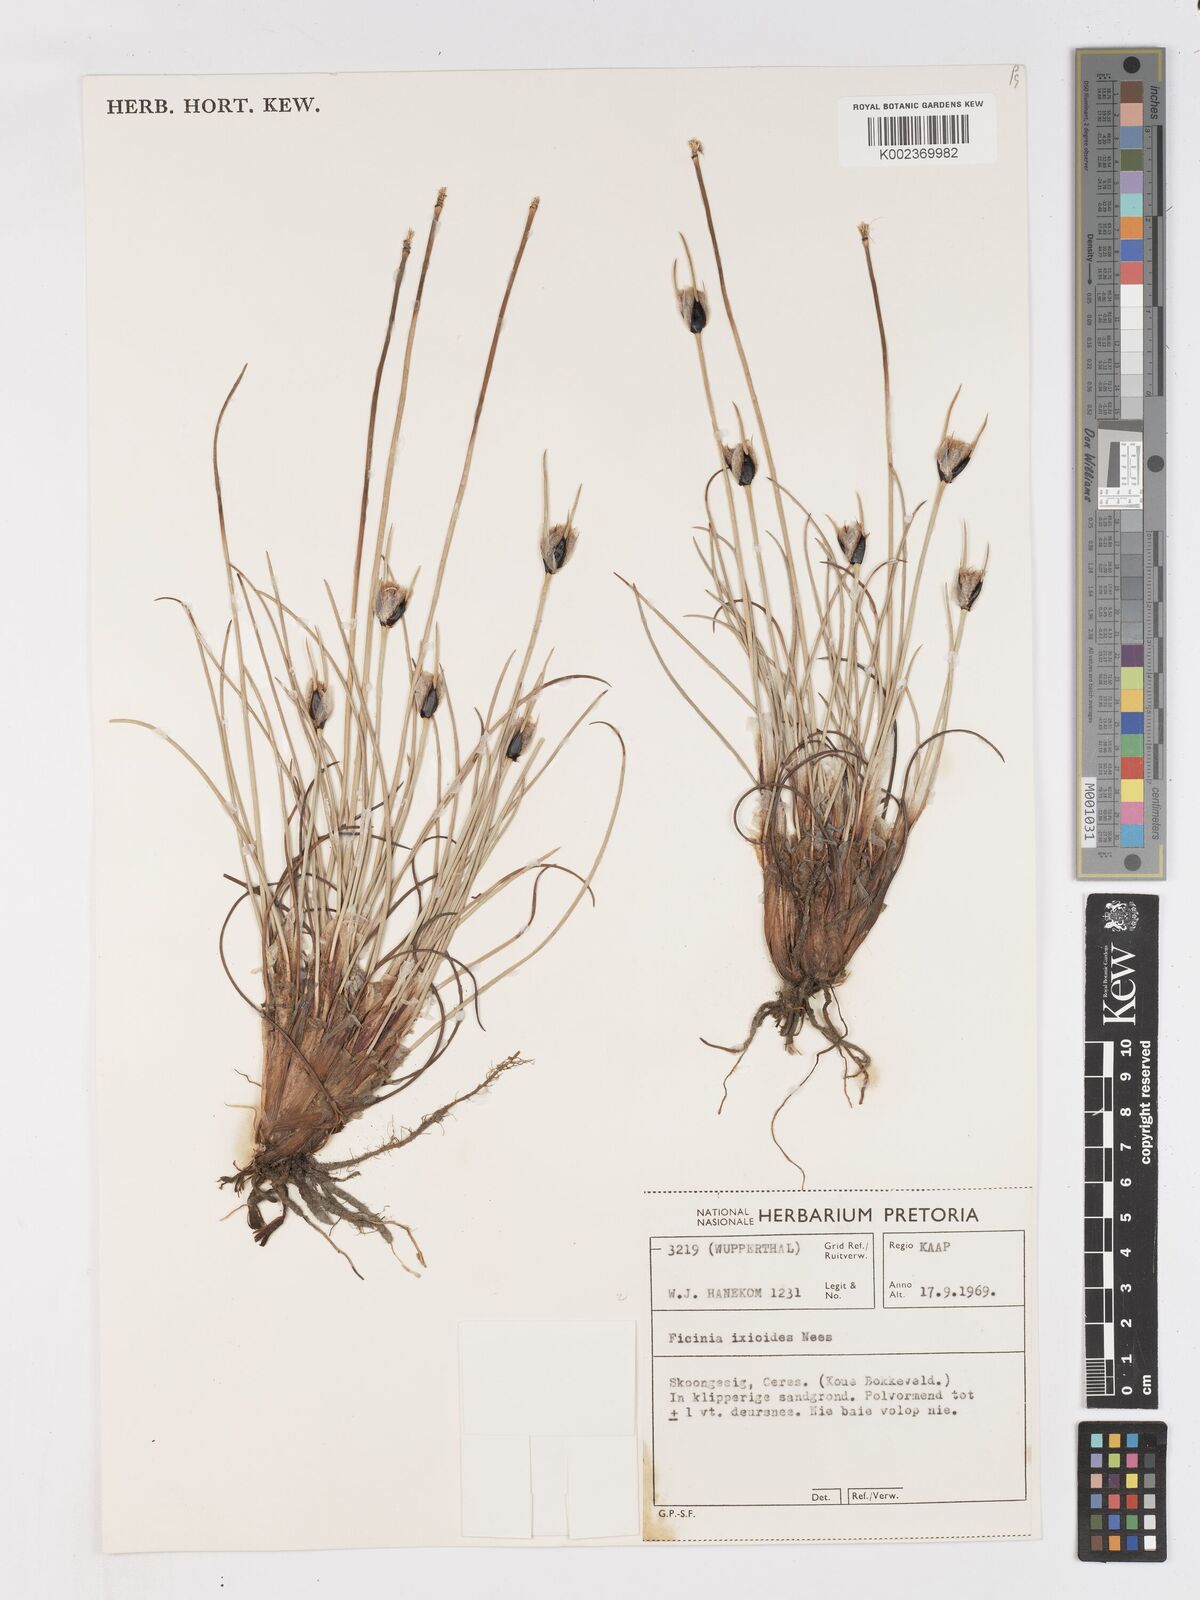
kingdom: Plantae
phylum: Tracheophyta
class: Liliopsida
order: Poales
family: Cyperaceae
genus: Ficinia
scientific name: Ficinia ixioides
